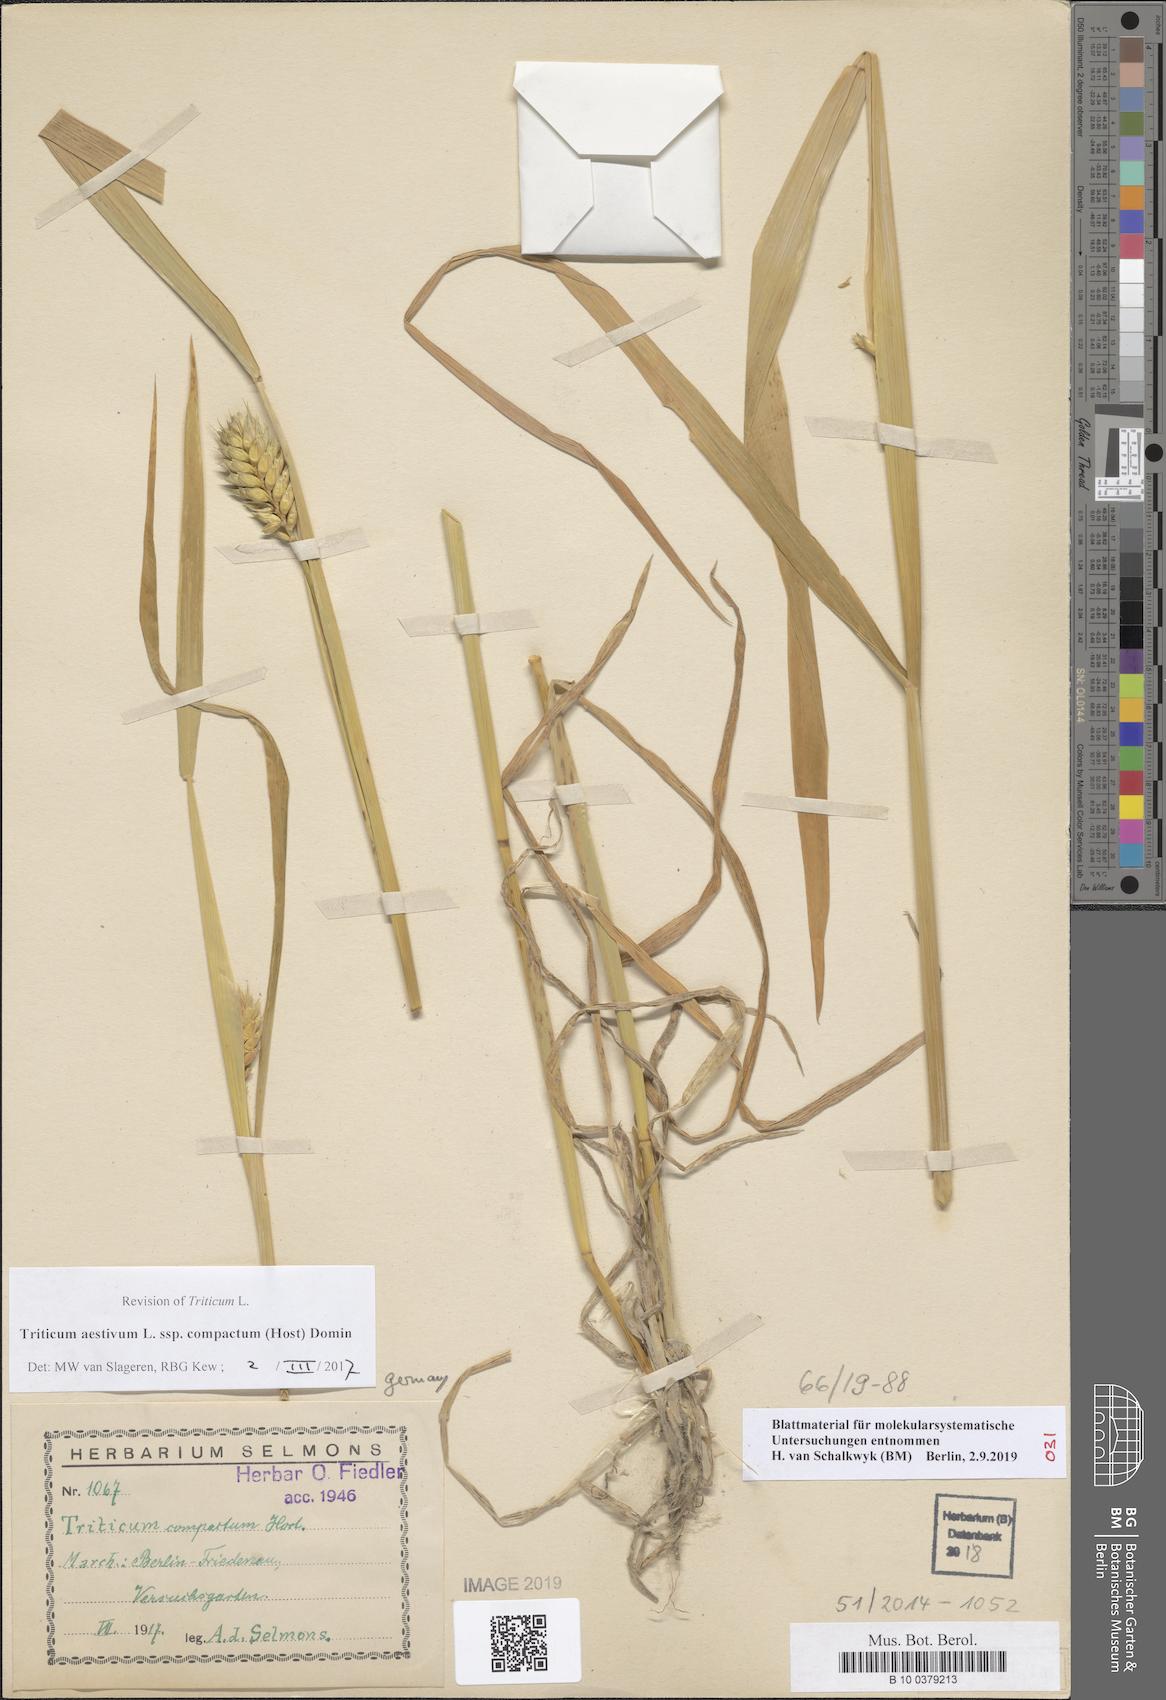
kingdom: Plantae
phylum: Tracheophyta
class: Liliopsida
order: Poales
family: Poaceae
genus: Triticum
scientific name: Triticum aestivum
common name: Common wheat
